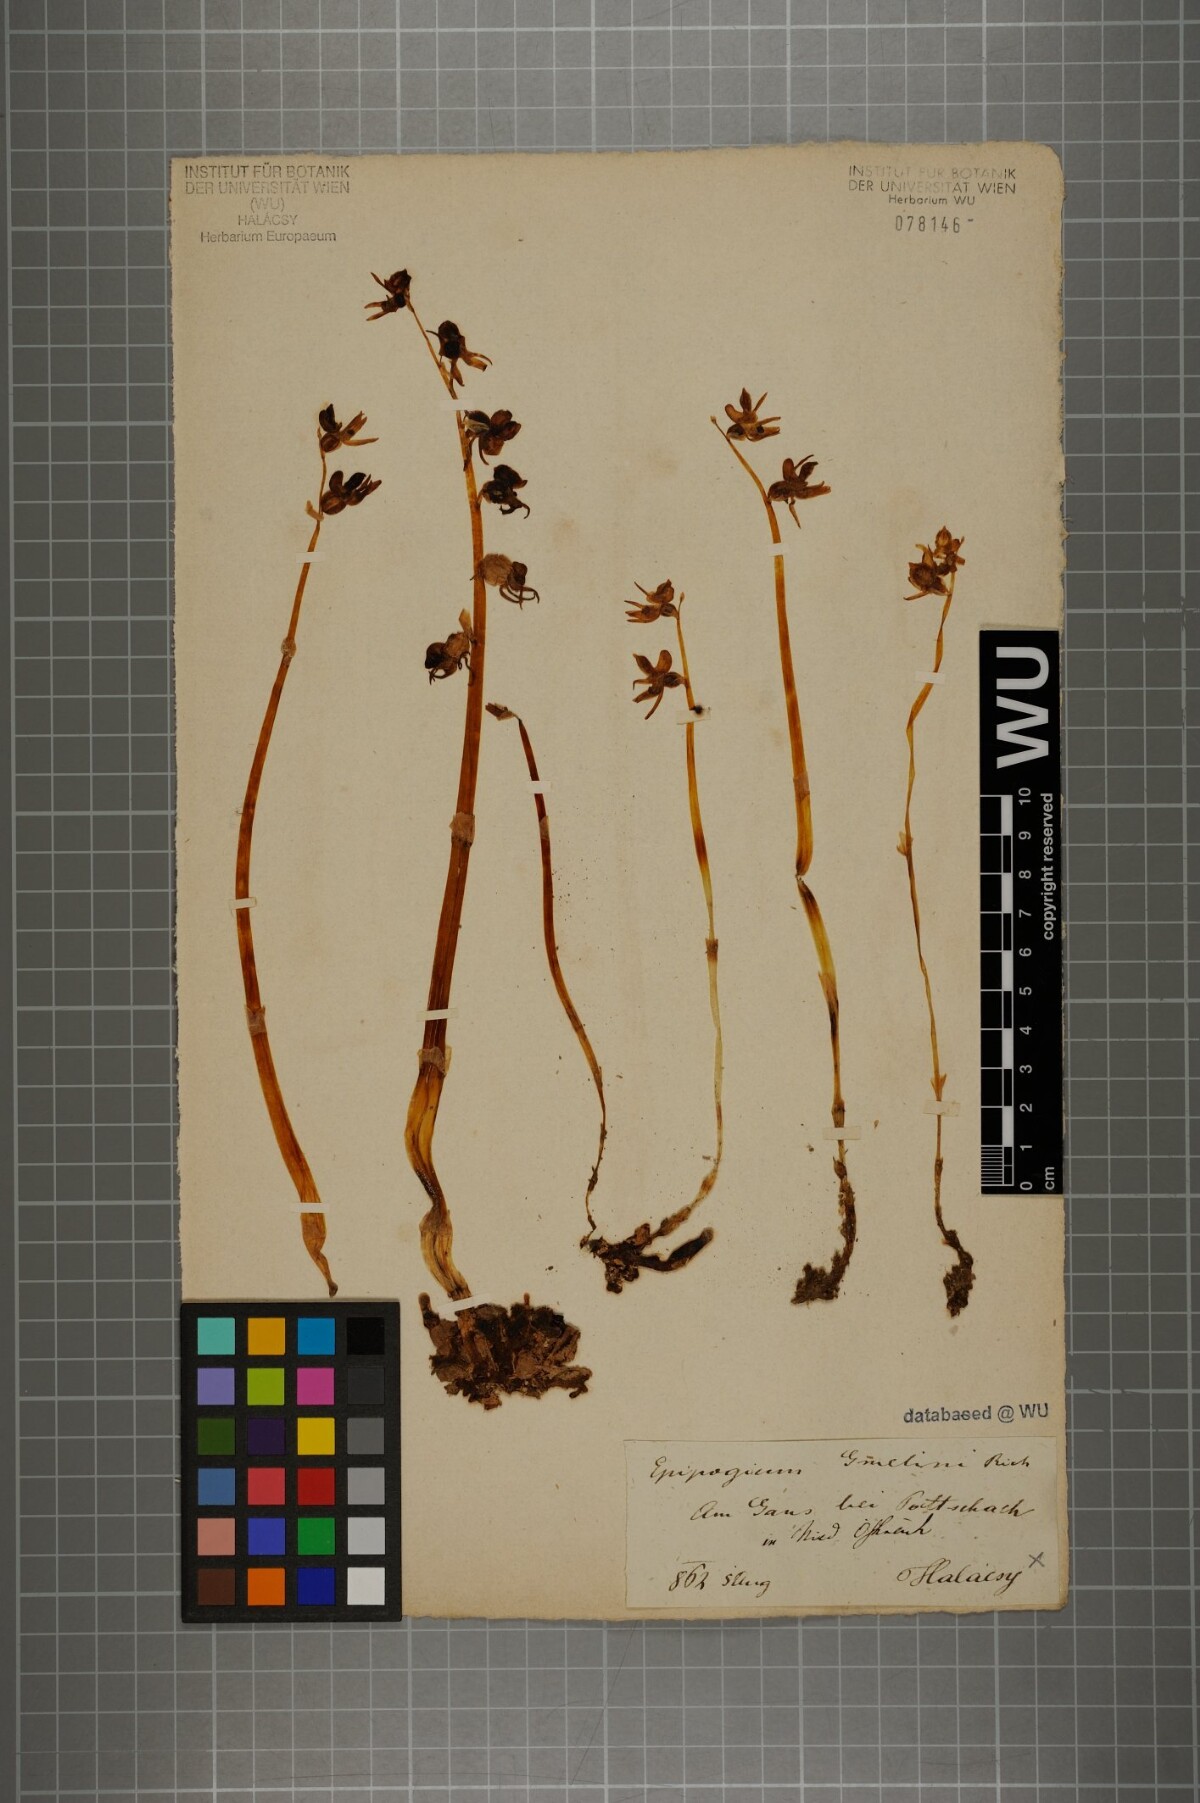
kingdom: Plantae
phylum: Tracheophyta
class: Liliopsida
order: Asparagales
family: Orchidaceae
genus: Epipogium
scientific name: Epipogium aphyllum
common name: Ghost orchid
